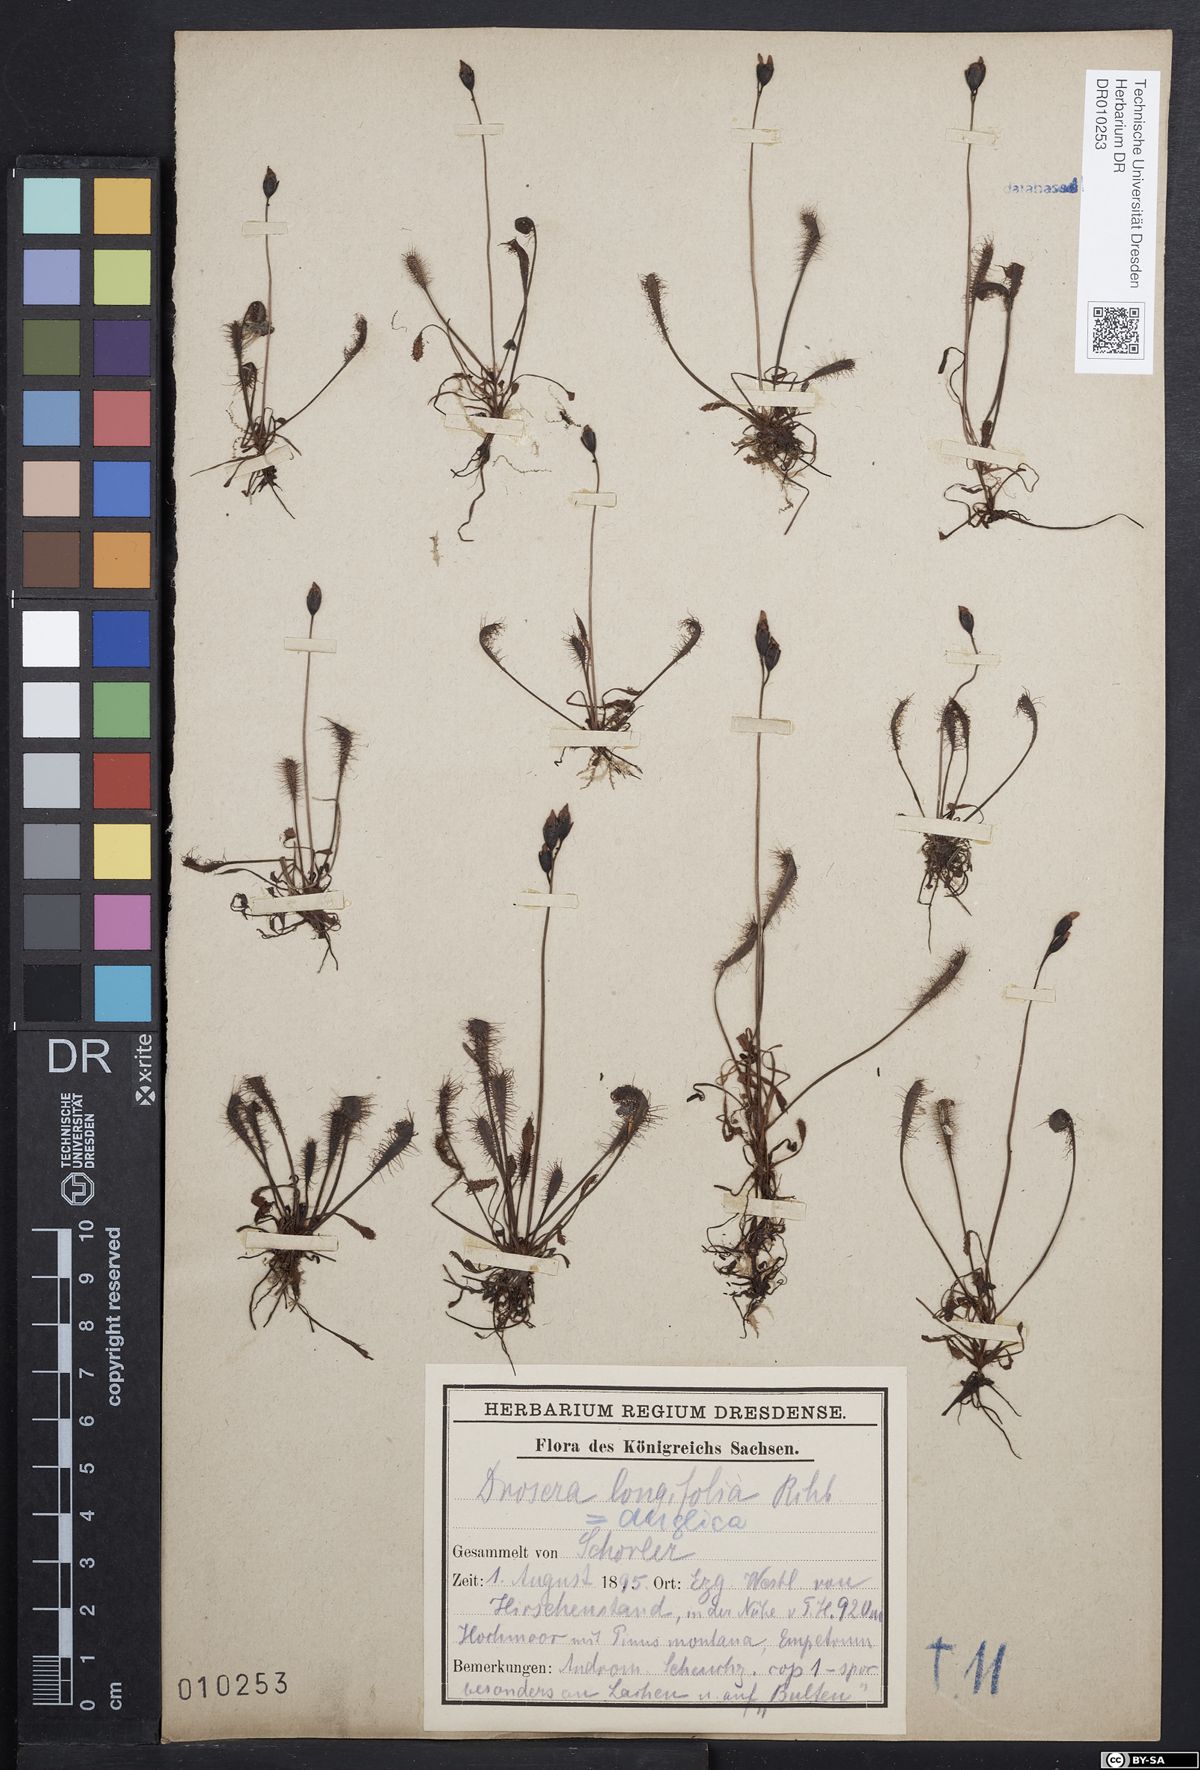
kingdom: Plantae
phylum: Tracheophyta
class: Magnoliopsida
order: Caryophyllales
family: Droseraceae
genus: Drosera
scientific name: Drosera anglica
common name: Great sundew
